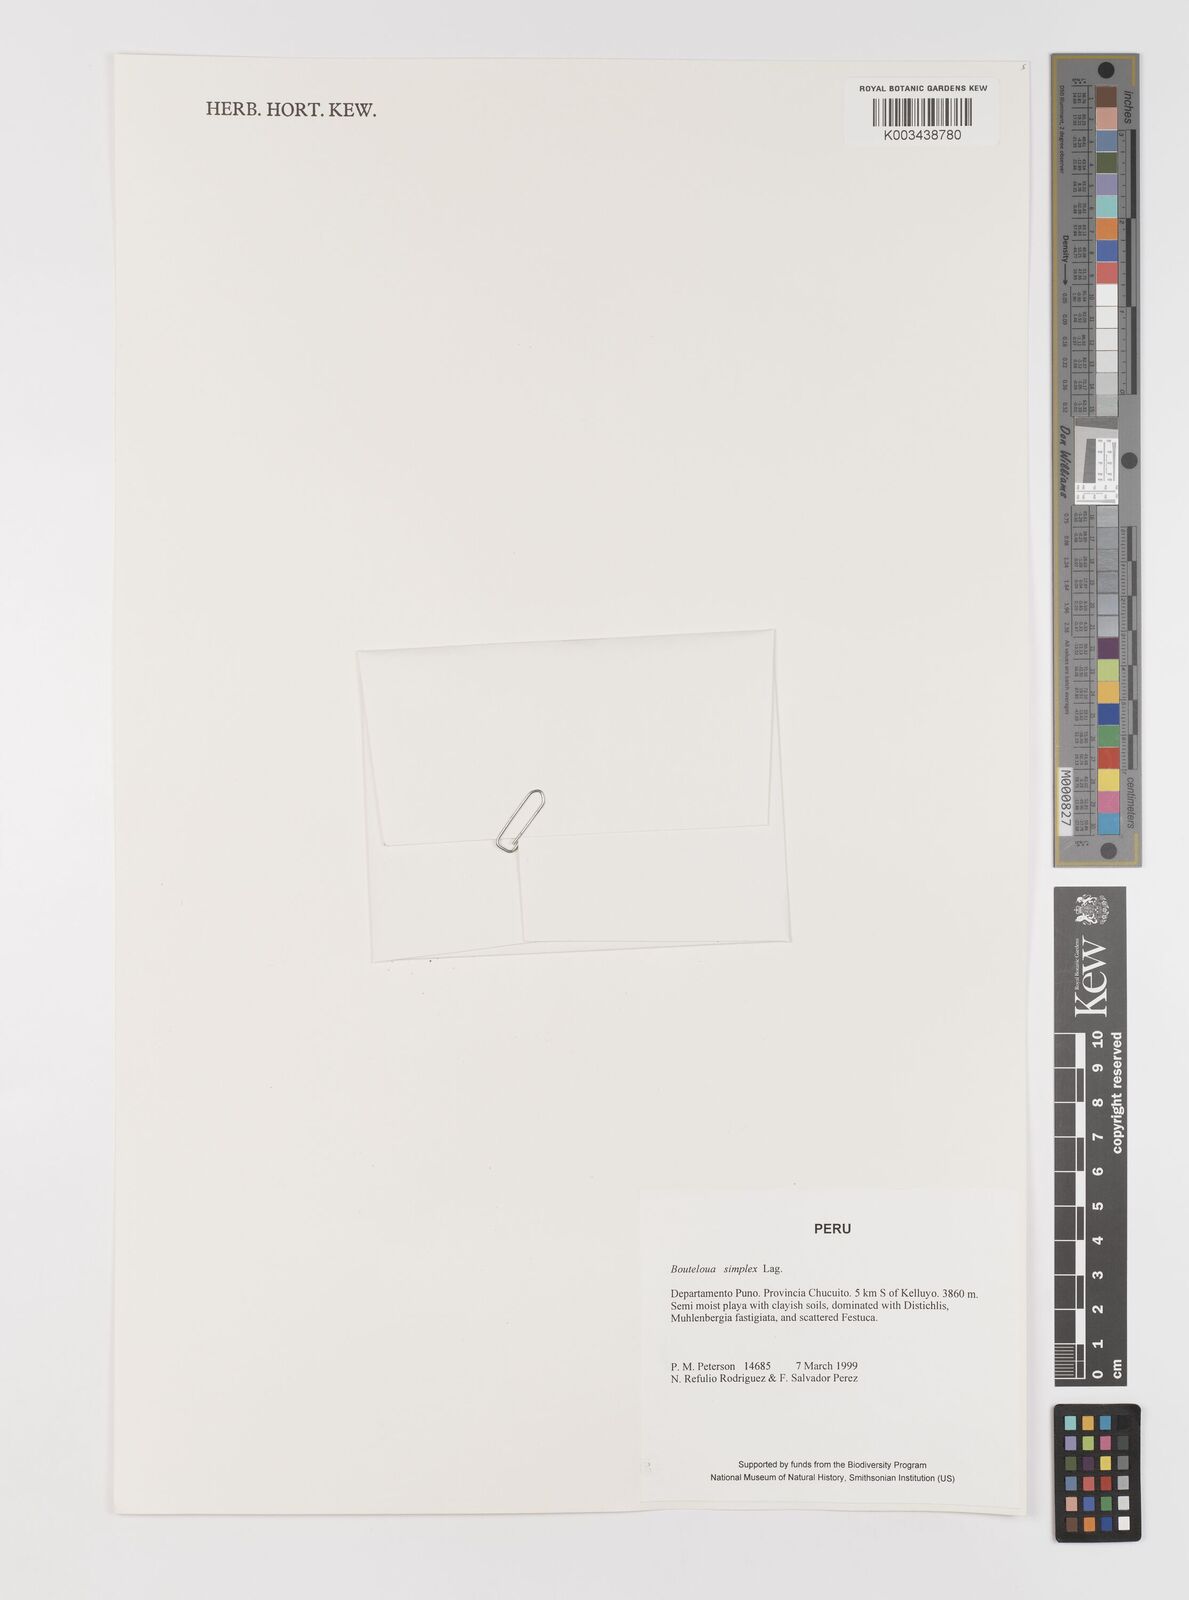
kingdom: Plantae
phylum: Tracheophyta
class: Liliopsida
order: Poales
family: Poaceae
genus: Bouteloua
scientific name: Bouteloua simplex
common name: Mat grama
